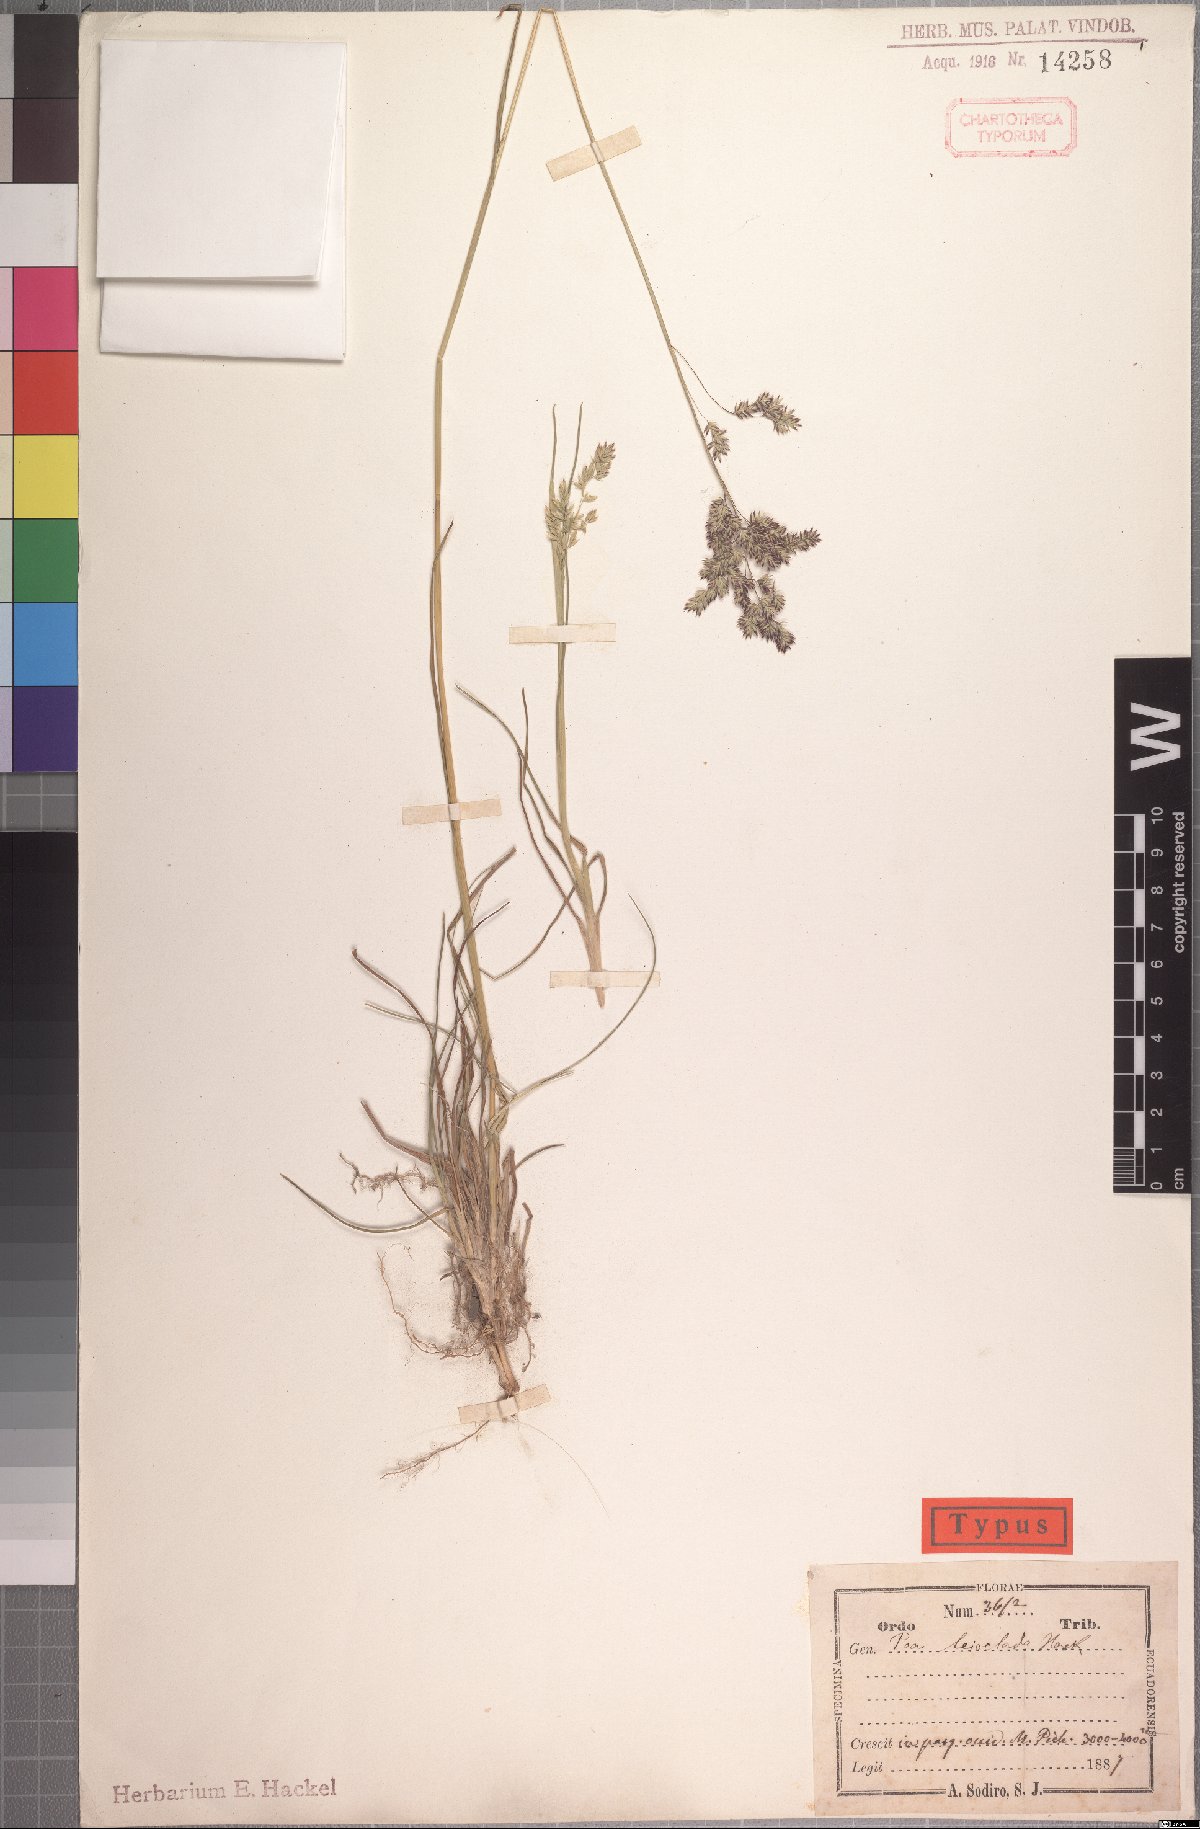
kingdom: Plantae
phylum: Tracheophyta
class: Liliopsida
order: Poales
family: Poaceae
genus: Poa
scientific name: Poa mulalensis
